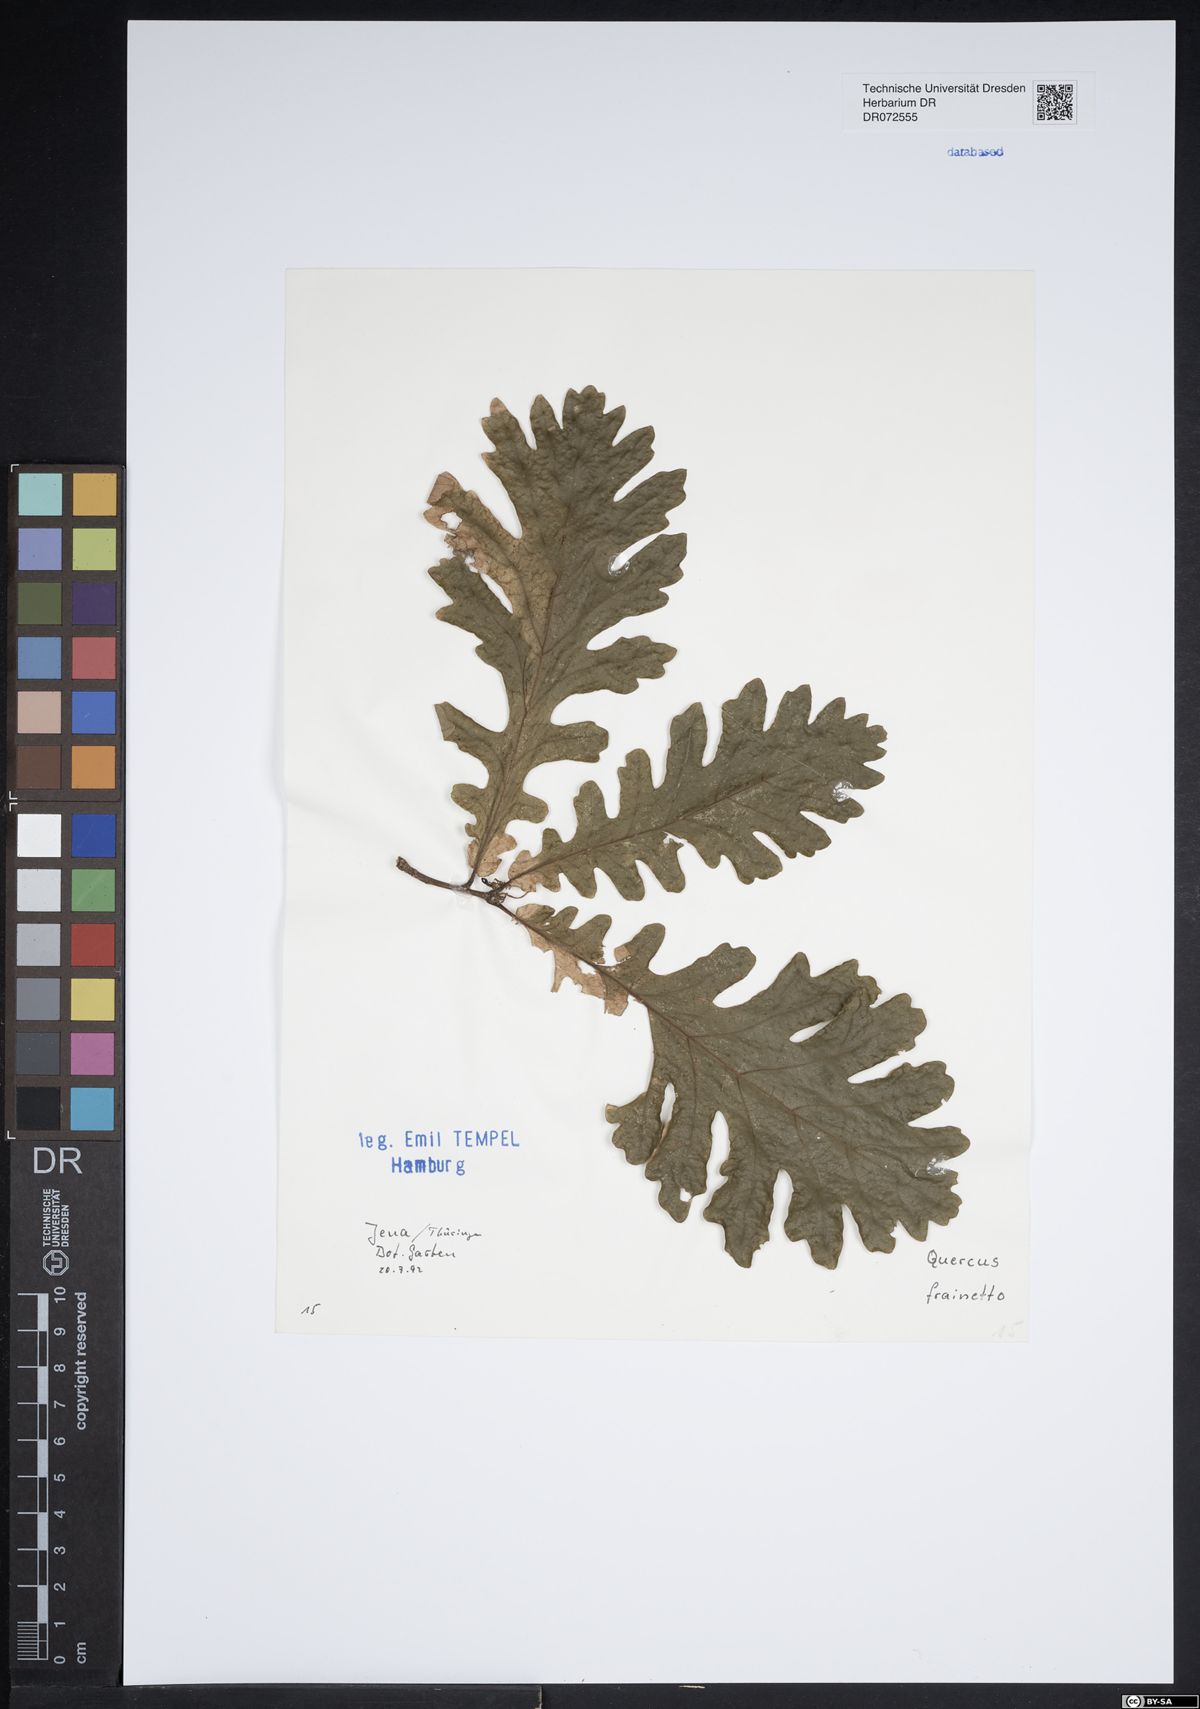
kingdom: Plantae
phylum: Tracheophyta
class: Magnoliopsida
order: Fagales
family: Fagaceae
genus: Quercus
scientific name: Quercus conferta
